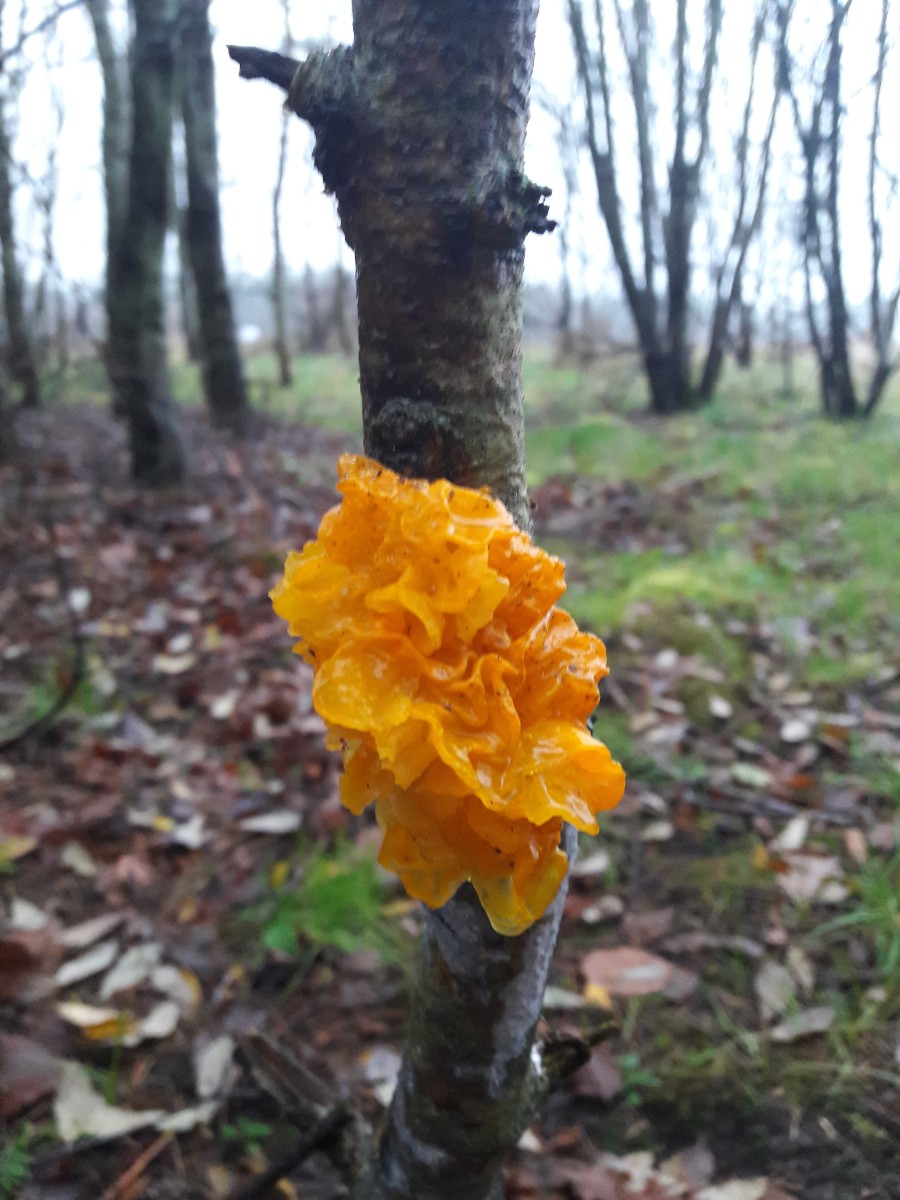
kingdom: Fungi
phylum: Basidiomycota
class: Tremellomycetes
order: Tremellales
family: Tremellaceae
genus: Tremella
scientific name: Tremella mesenterica
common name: gul bævresvamp
